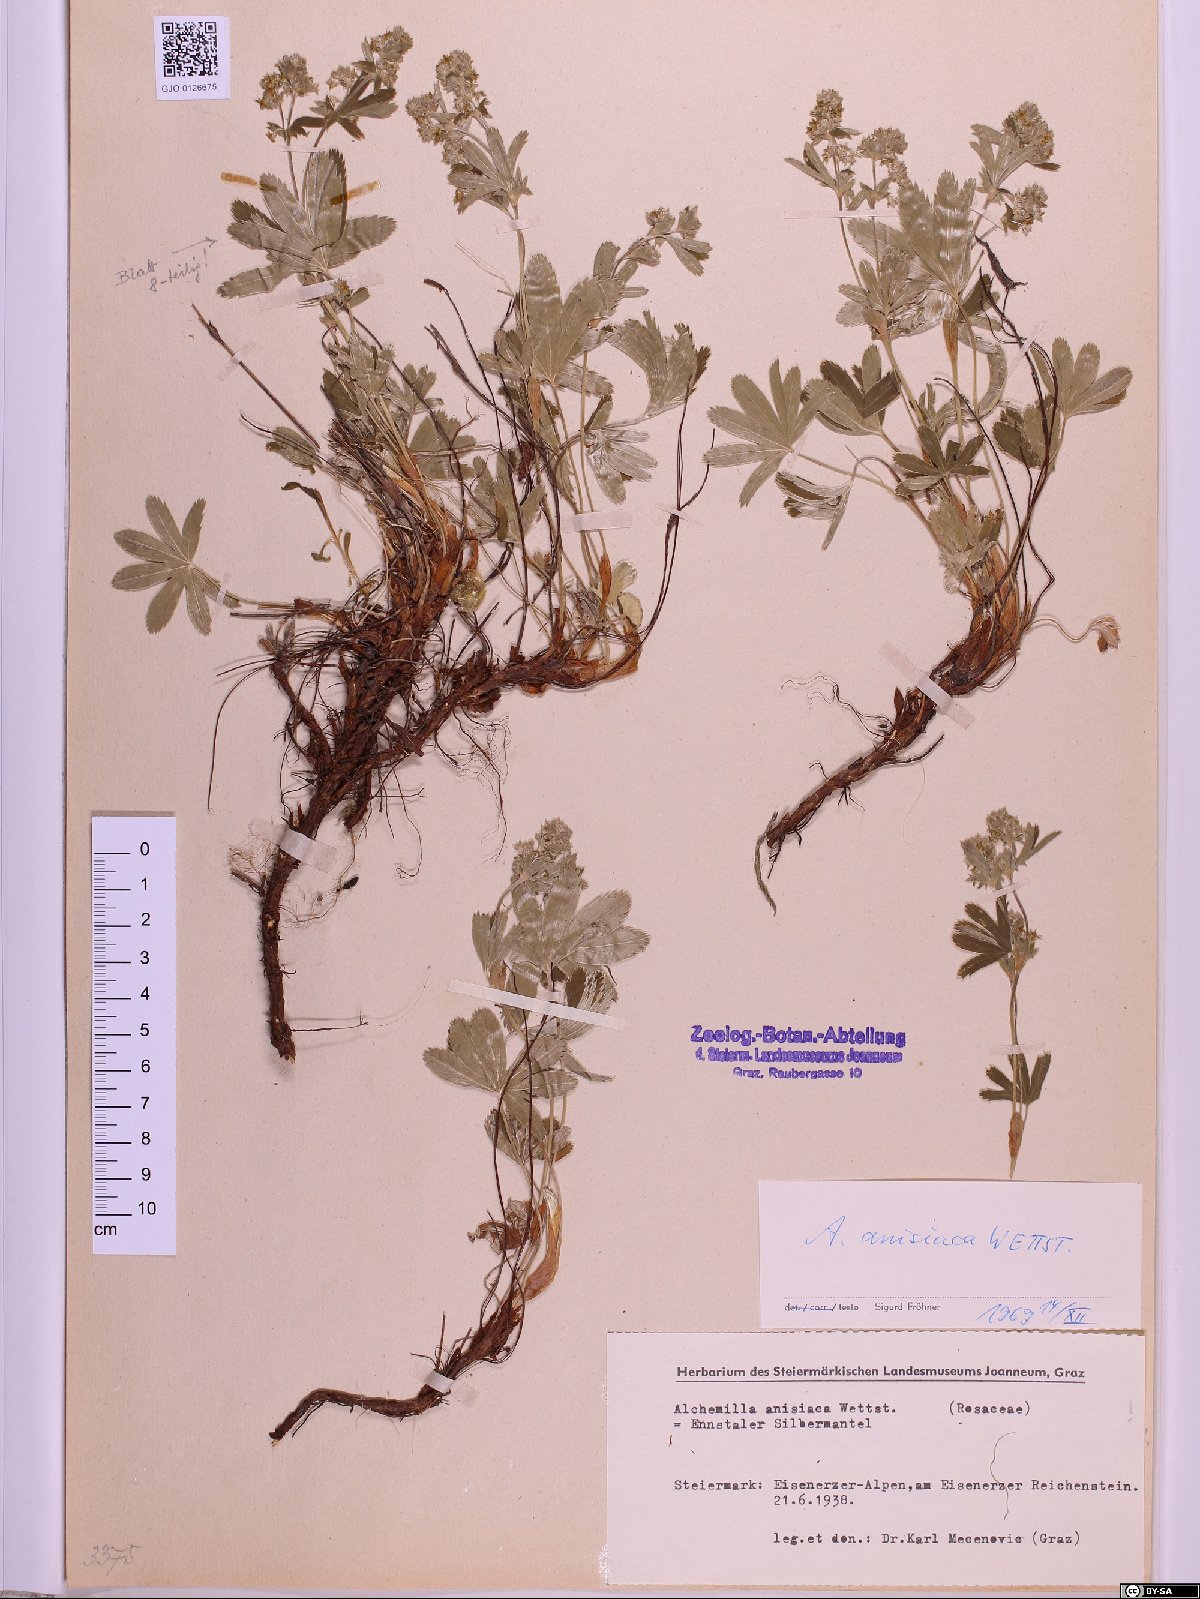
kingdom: Plantae
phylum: Tracheophyta
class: Magnoliopsida
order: Rosales
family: Rosaceae
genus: Alchemilla
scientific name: Alchemilla anisiaca
